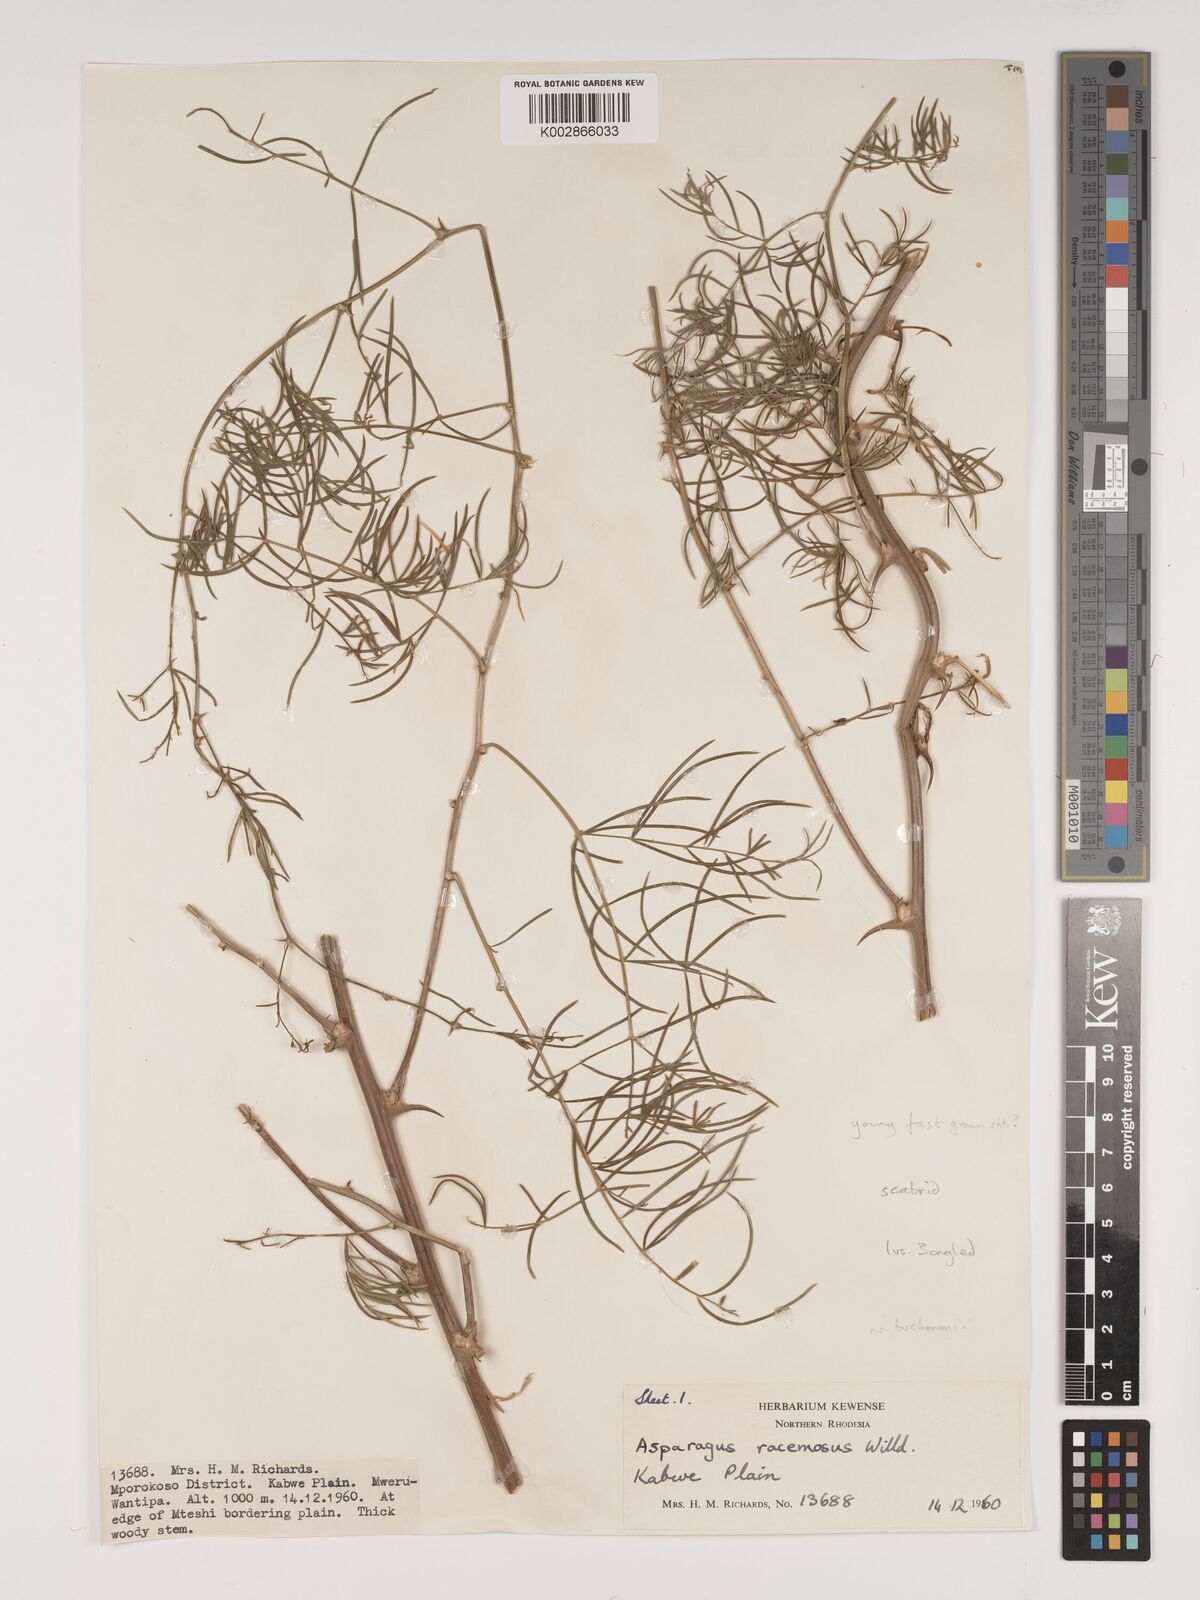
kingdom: Plantae
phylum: Tracheophyta
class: Liliopsida
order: Asparagales
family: Asparagaceae
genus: Asparagus
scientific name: Asparagus buchananii
